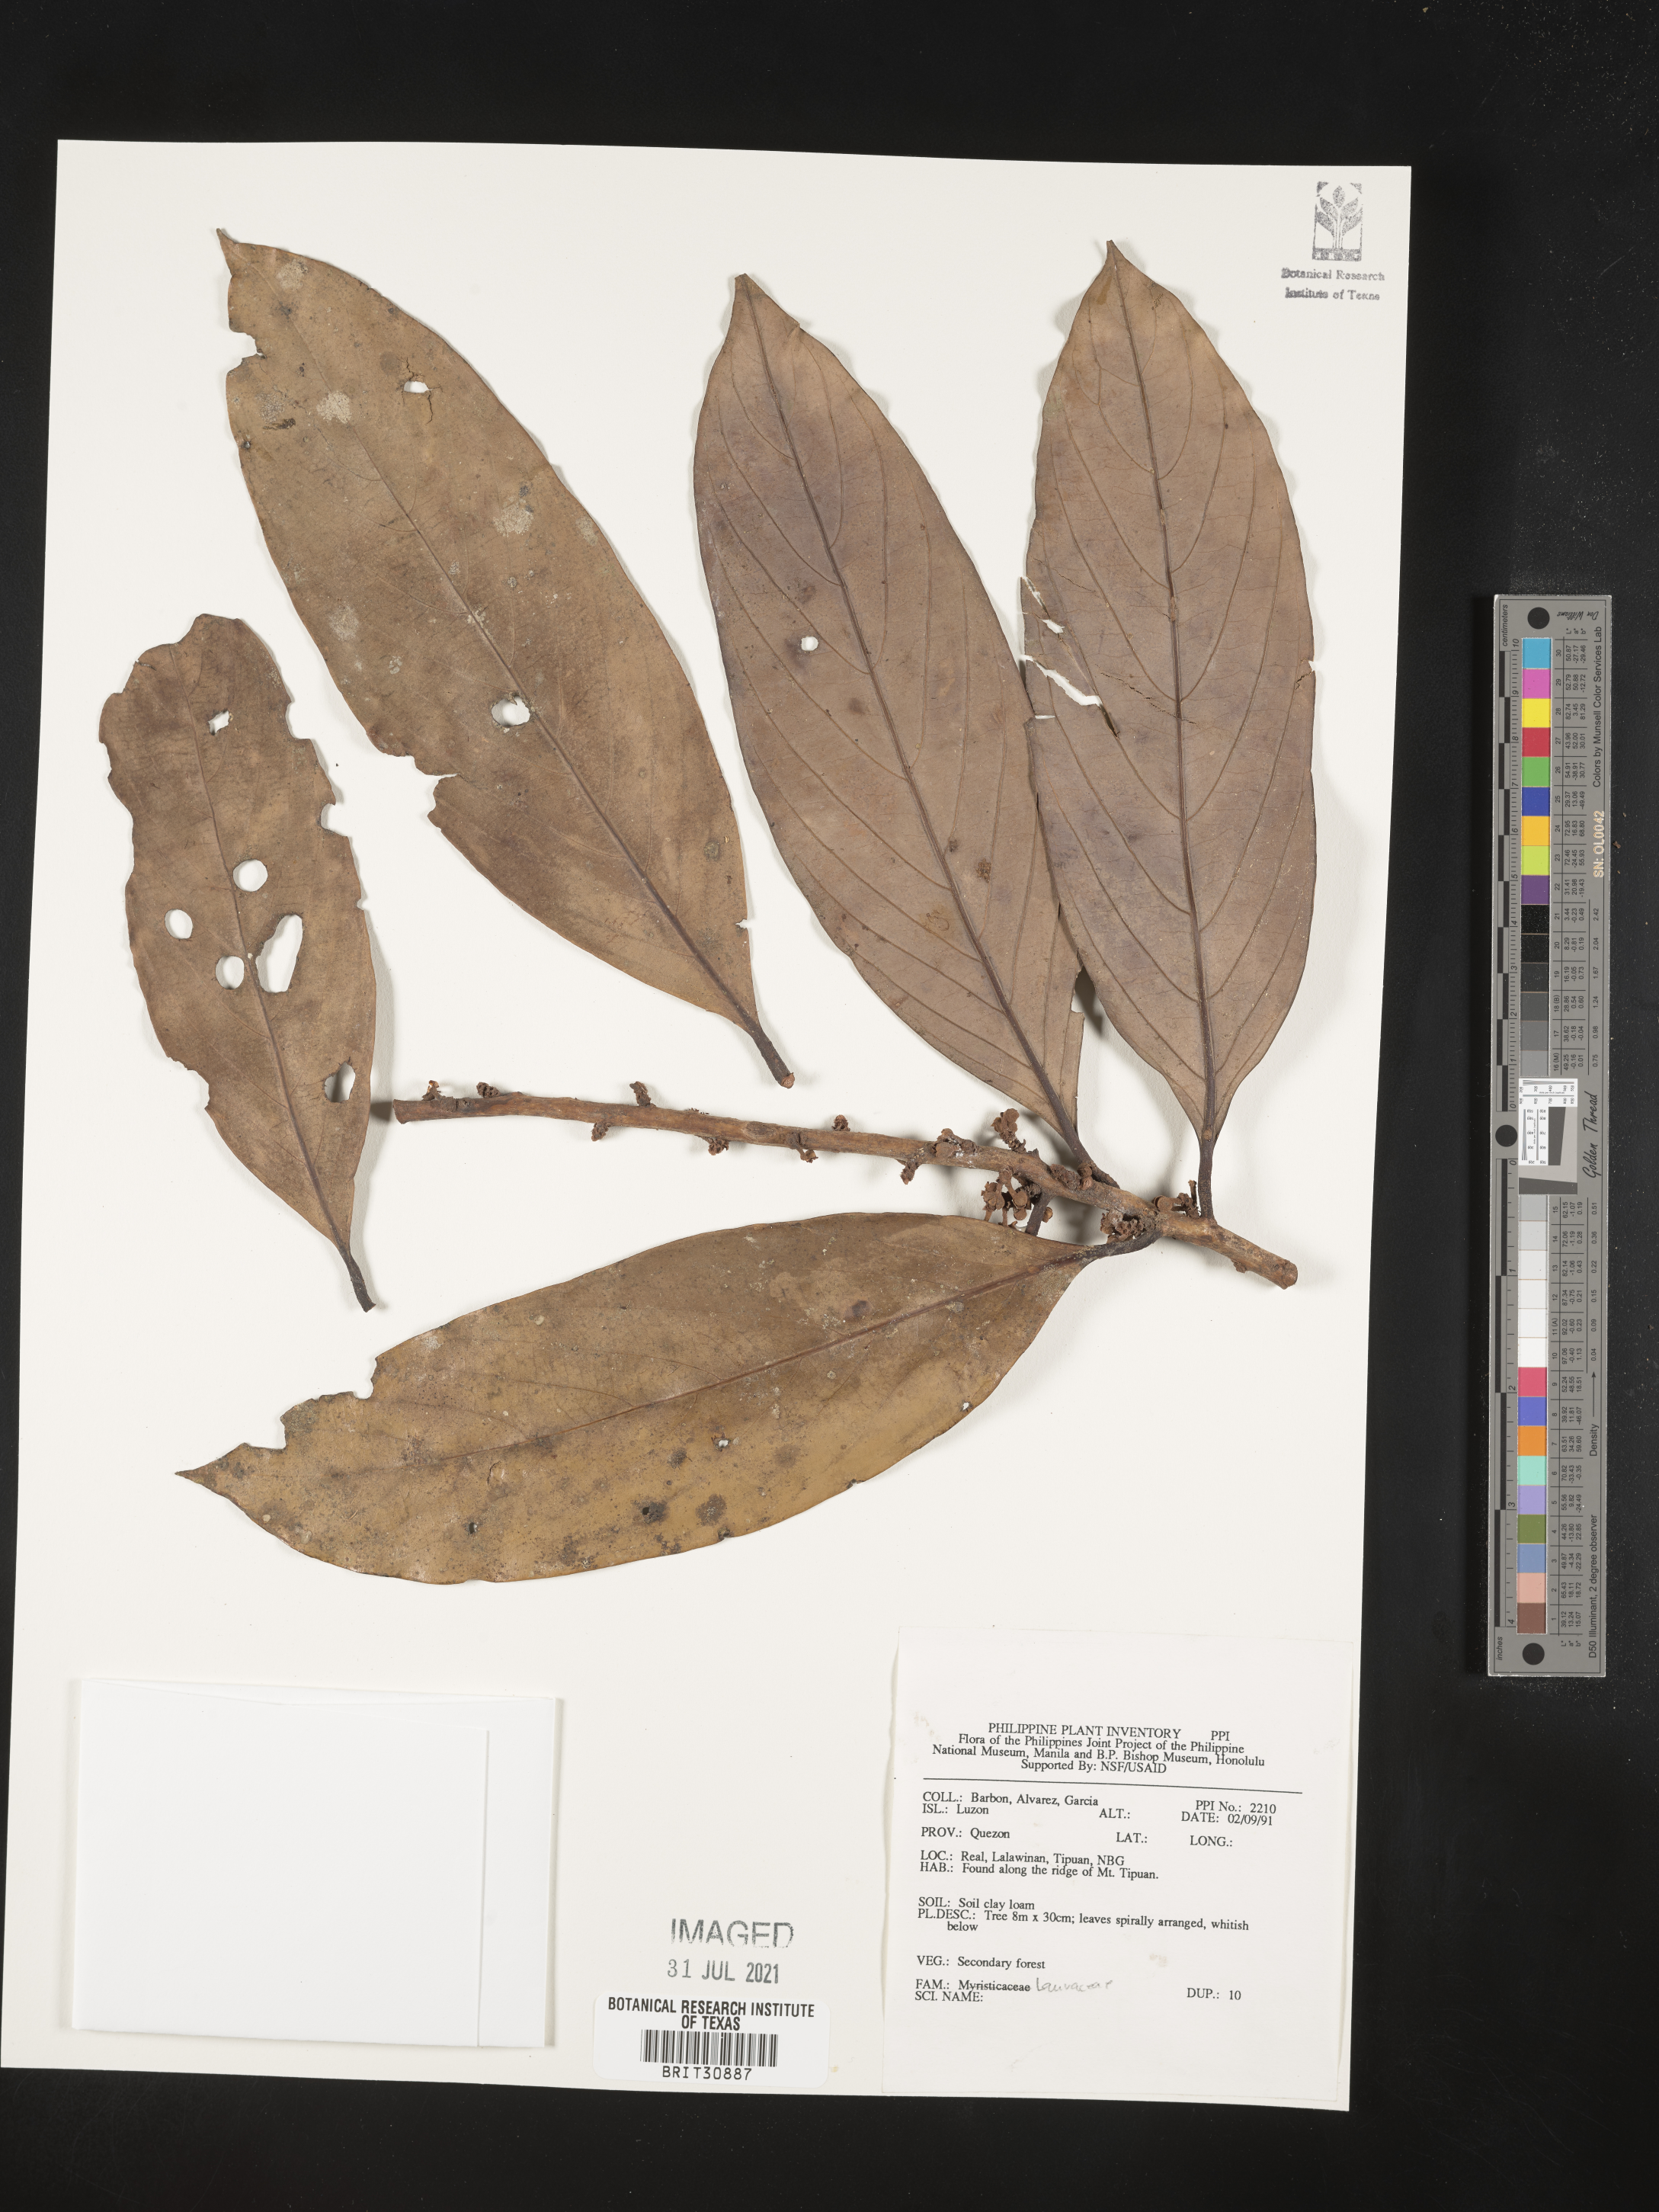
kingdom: Plantae
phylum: Tracheophyta
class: Magnoliopsida
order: Laurales
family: Lauraceae
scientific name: Lauraceae
